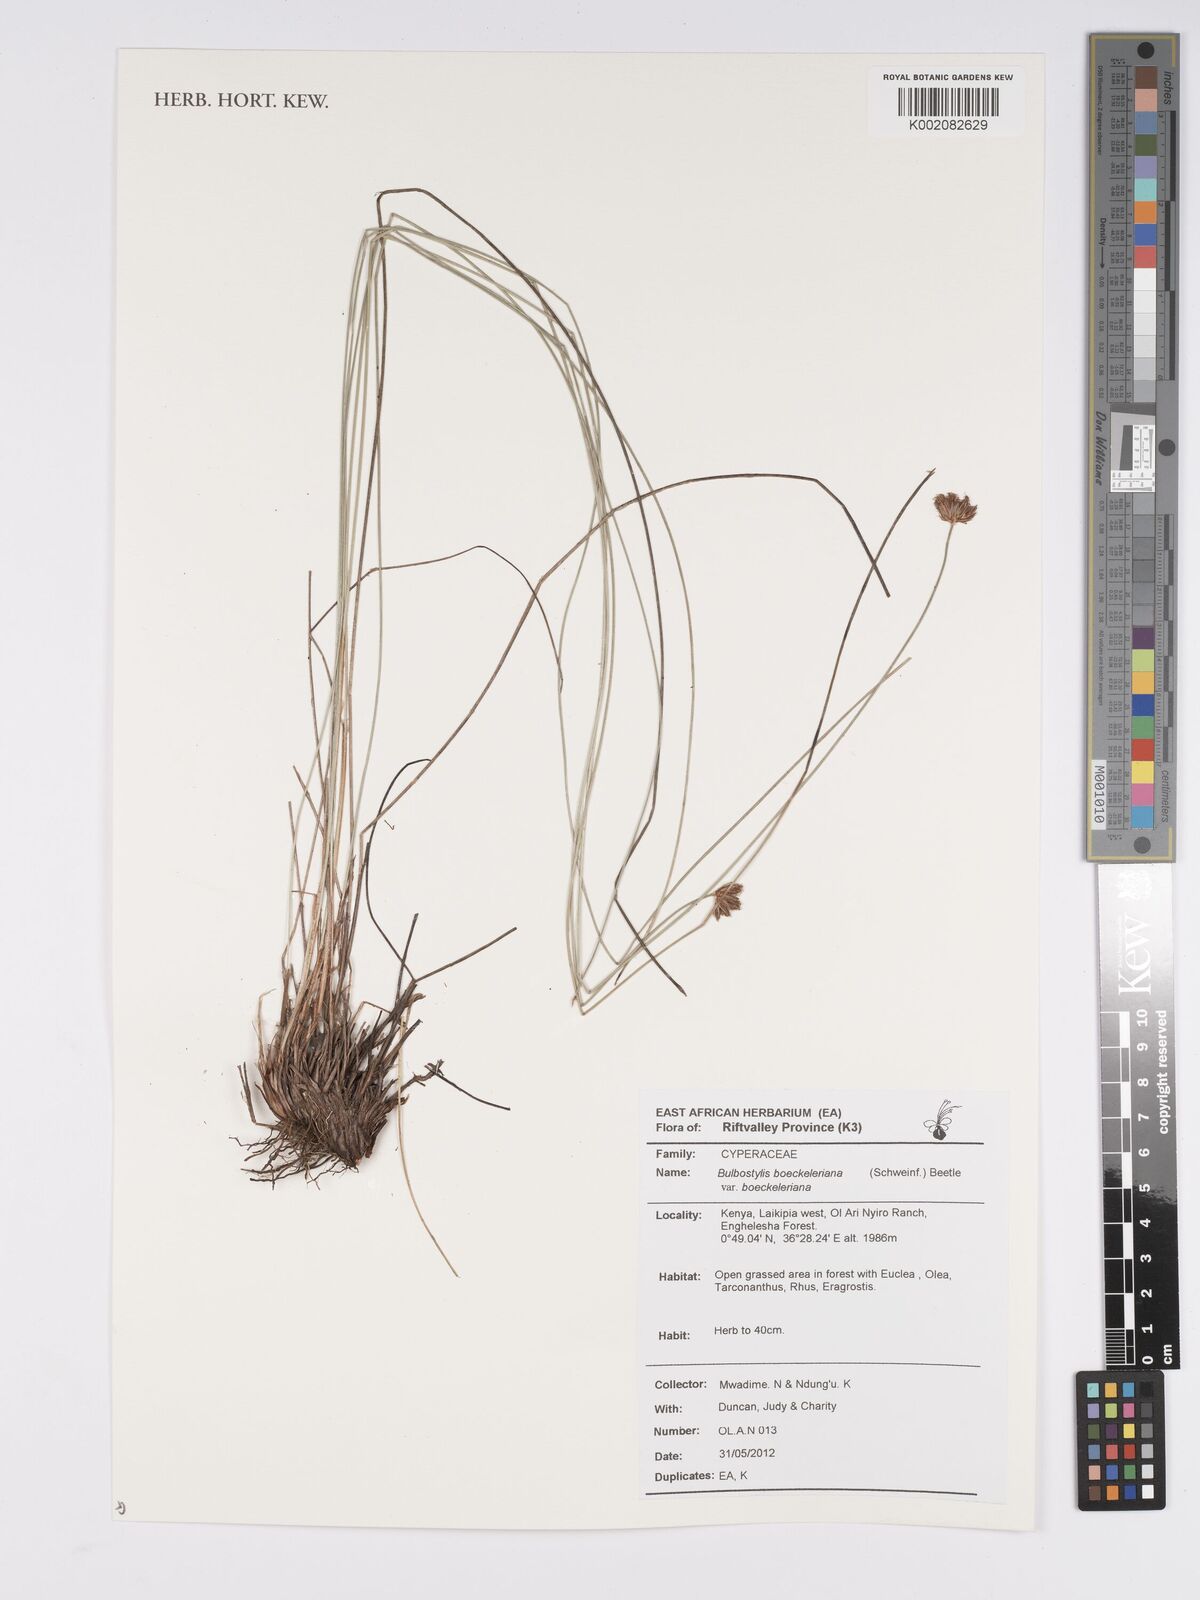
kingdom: Plantae
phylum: Tracheophyta
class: Liliopsida
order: Poales
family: Cyperaceae
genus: Bulbostylis
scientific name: Bulbostylis boeckeleriana
